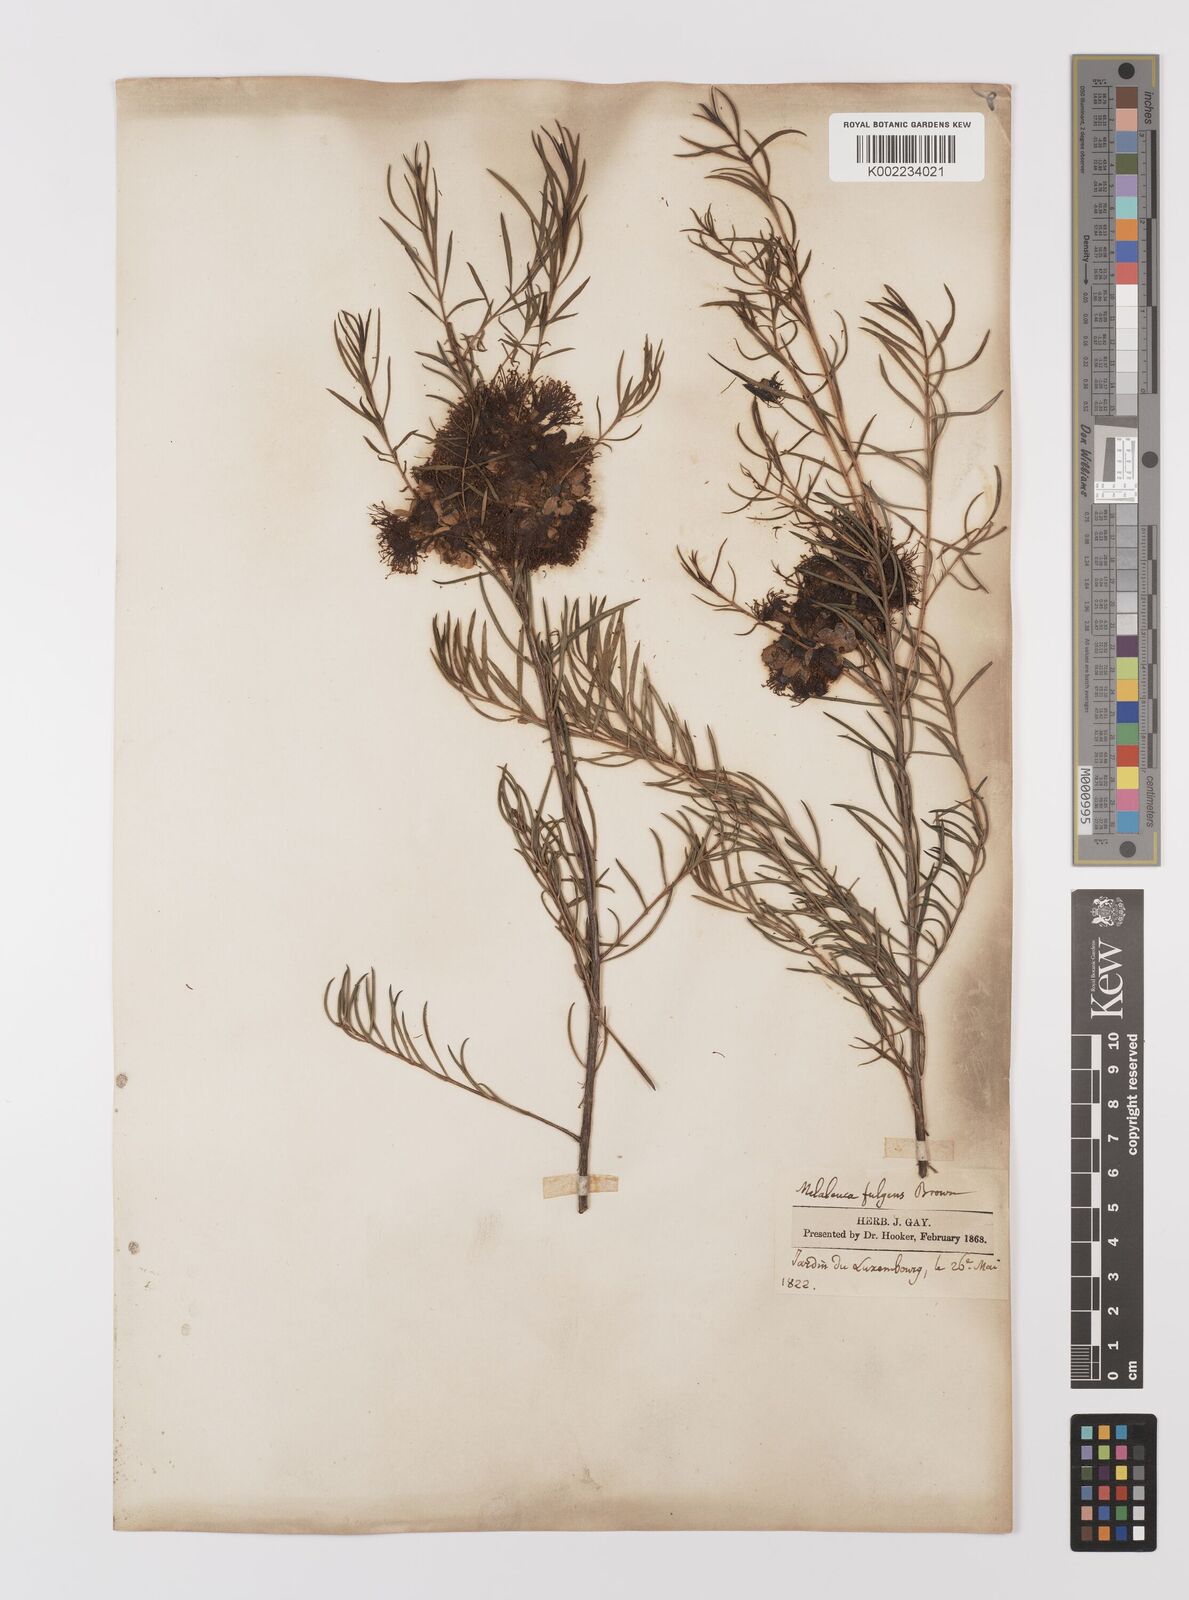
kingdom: Plantae
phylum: Tracheophyta
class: Magnoliopsida
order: Myrtales
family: Myrtaceae
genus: Melaleuca
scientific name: Melaleuca fulgens
